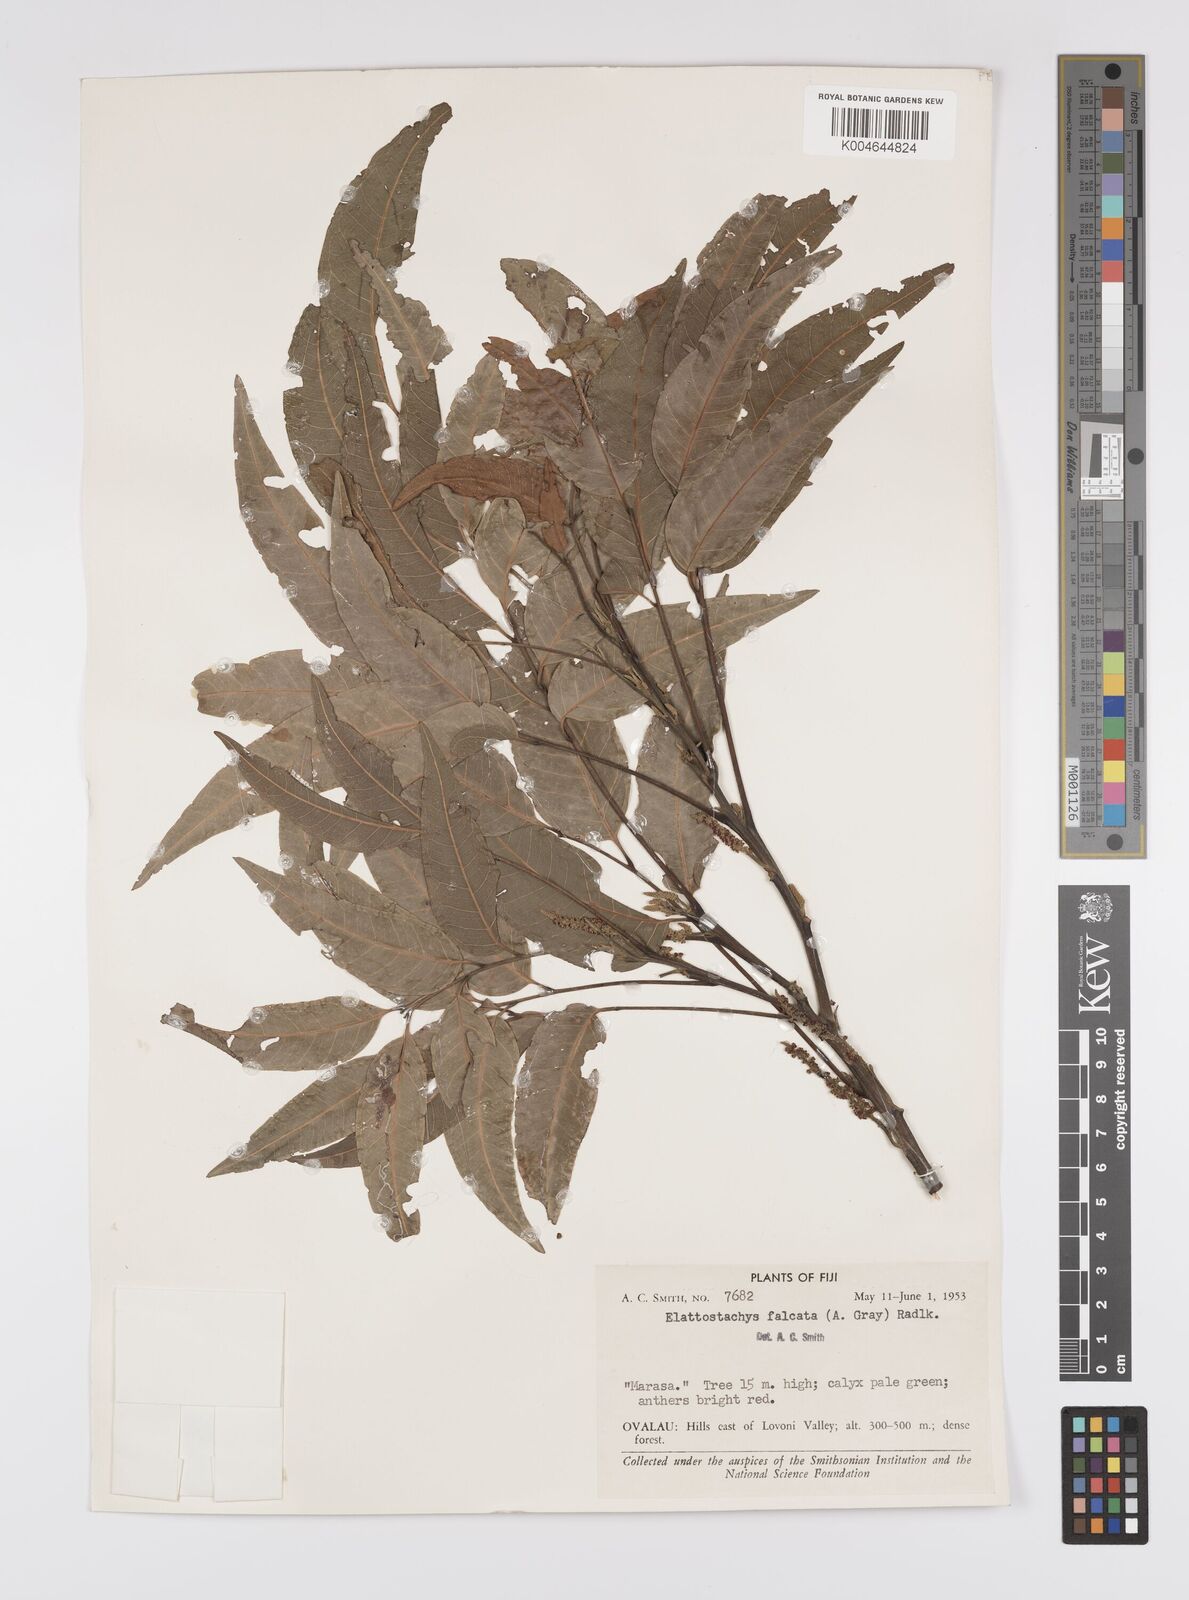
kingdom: Plantae
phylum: Tracheophyta
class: Magnoliopsida
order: Sapindales
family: Sapindaceae
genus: Elattostachys
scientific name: Elattostachys apetala
